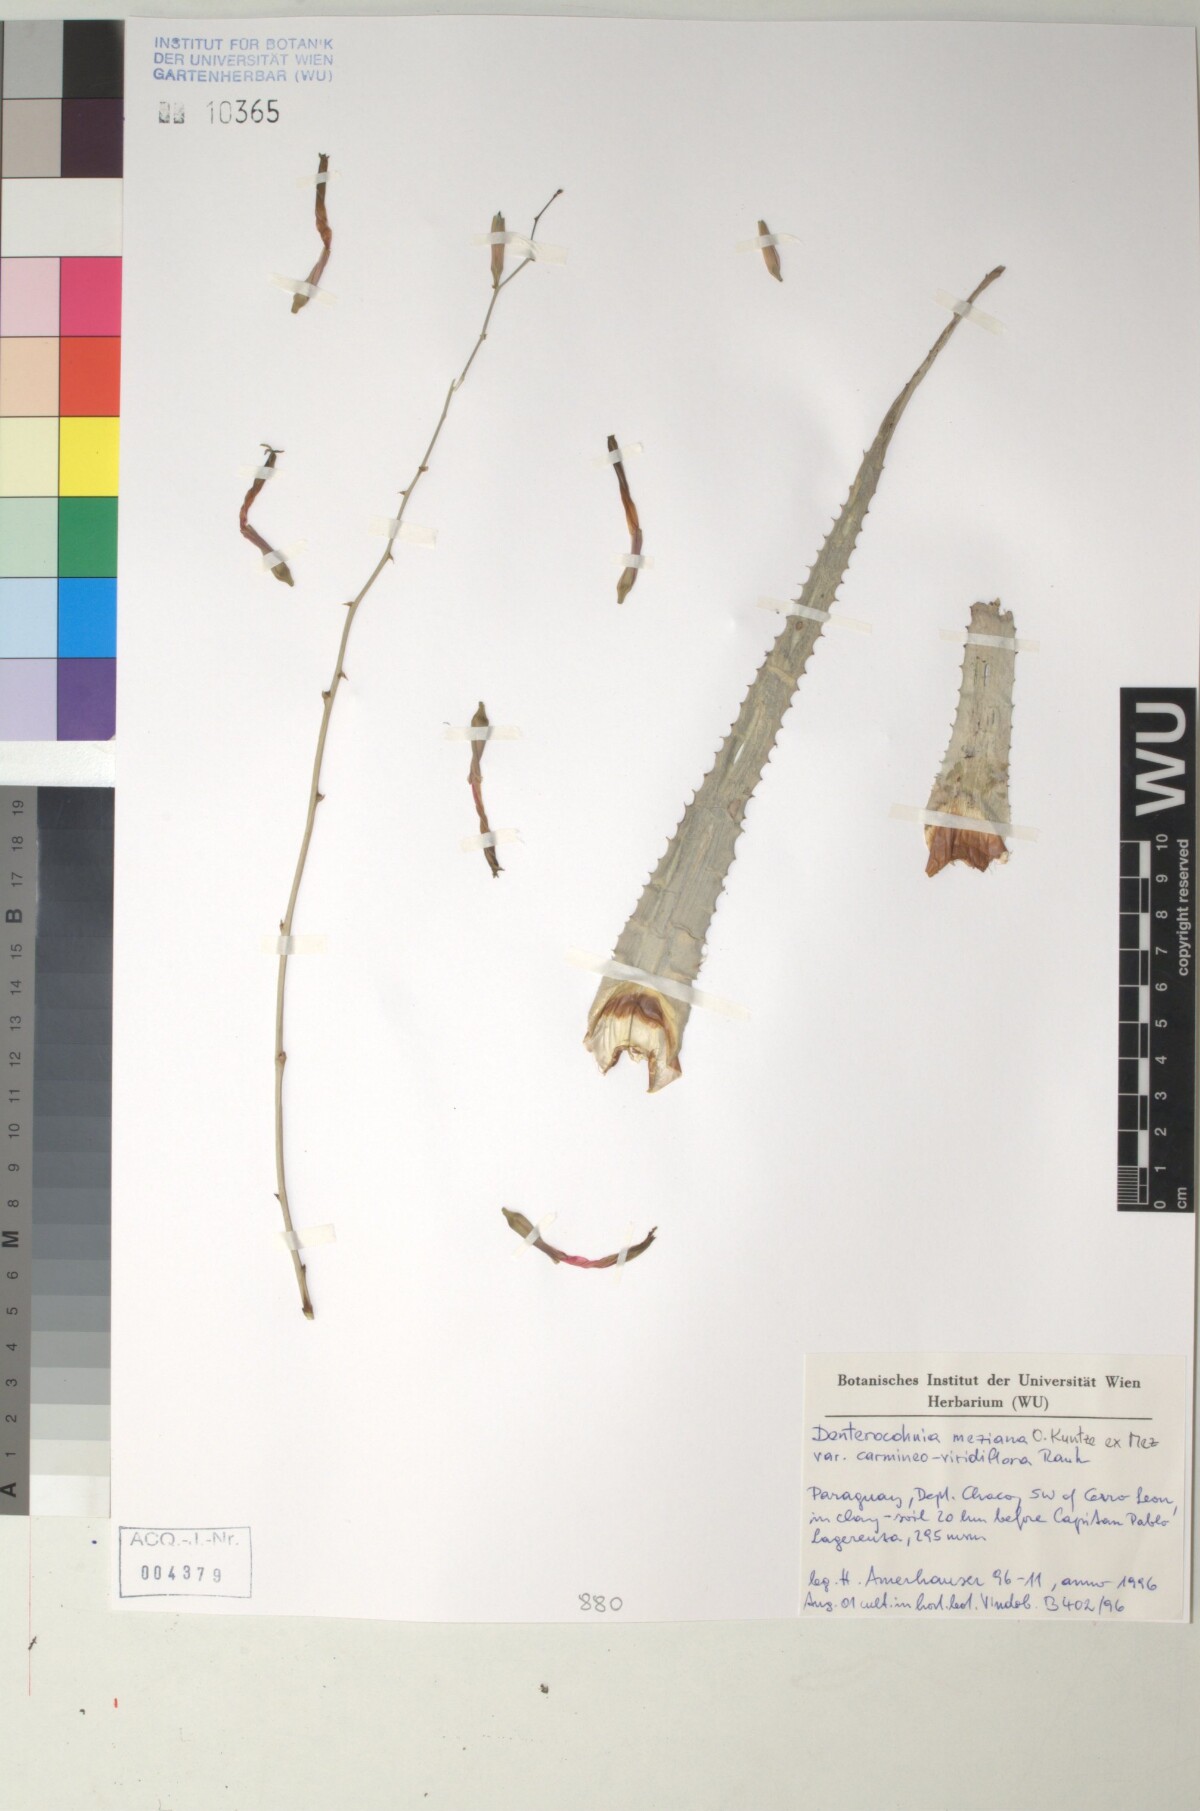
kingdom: Plantae
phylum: Tracheophyta
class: Liliopsida
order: Poales
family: Bromeliaceae
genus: Deuterocohnia
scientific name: Deuterocohnia meziana
